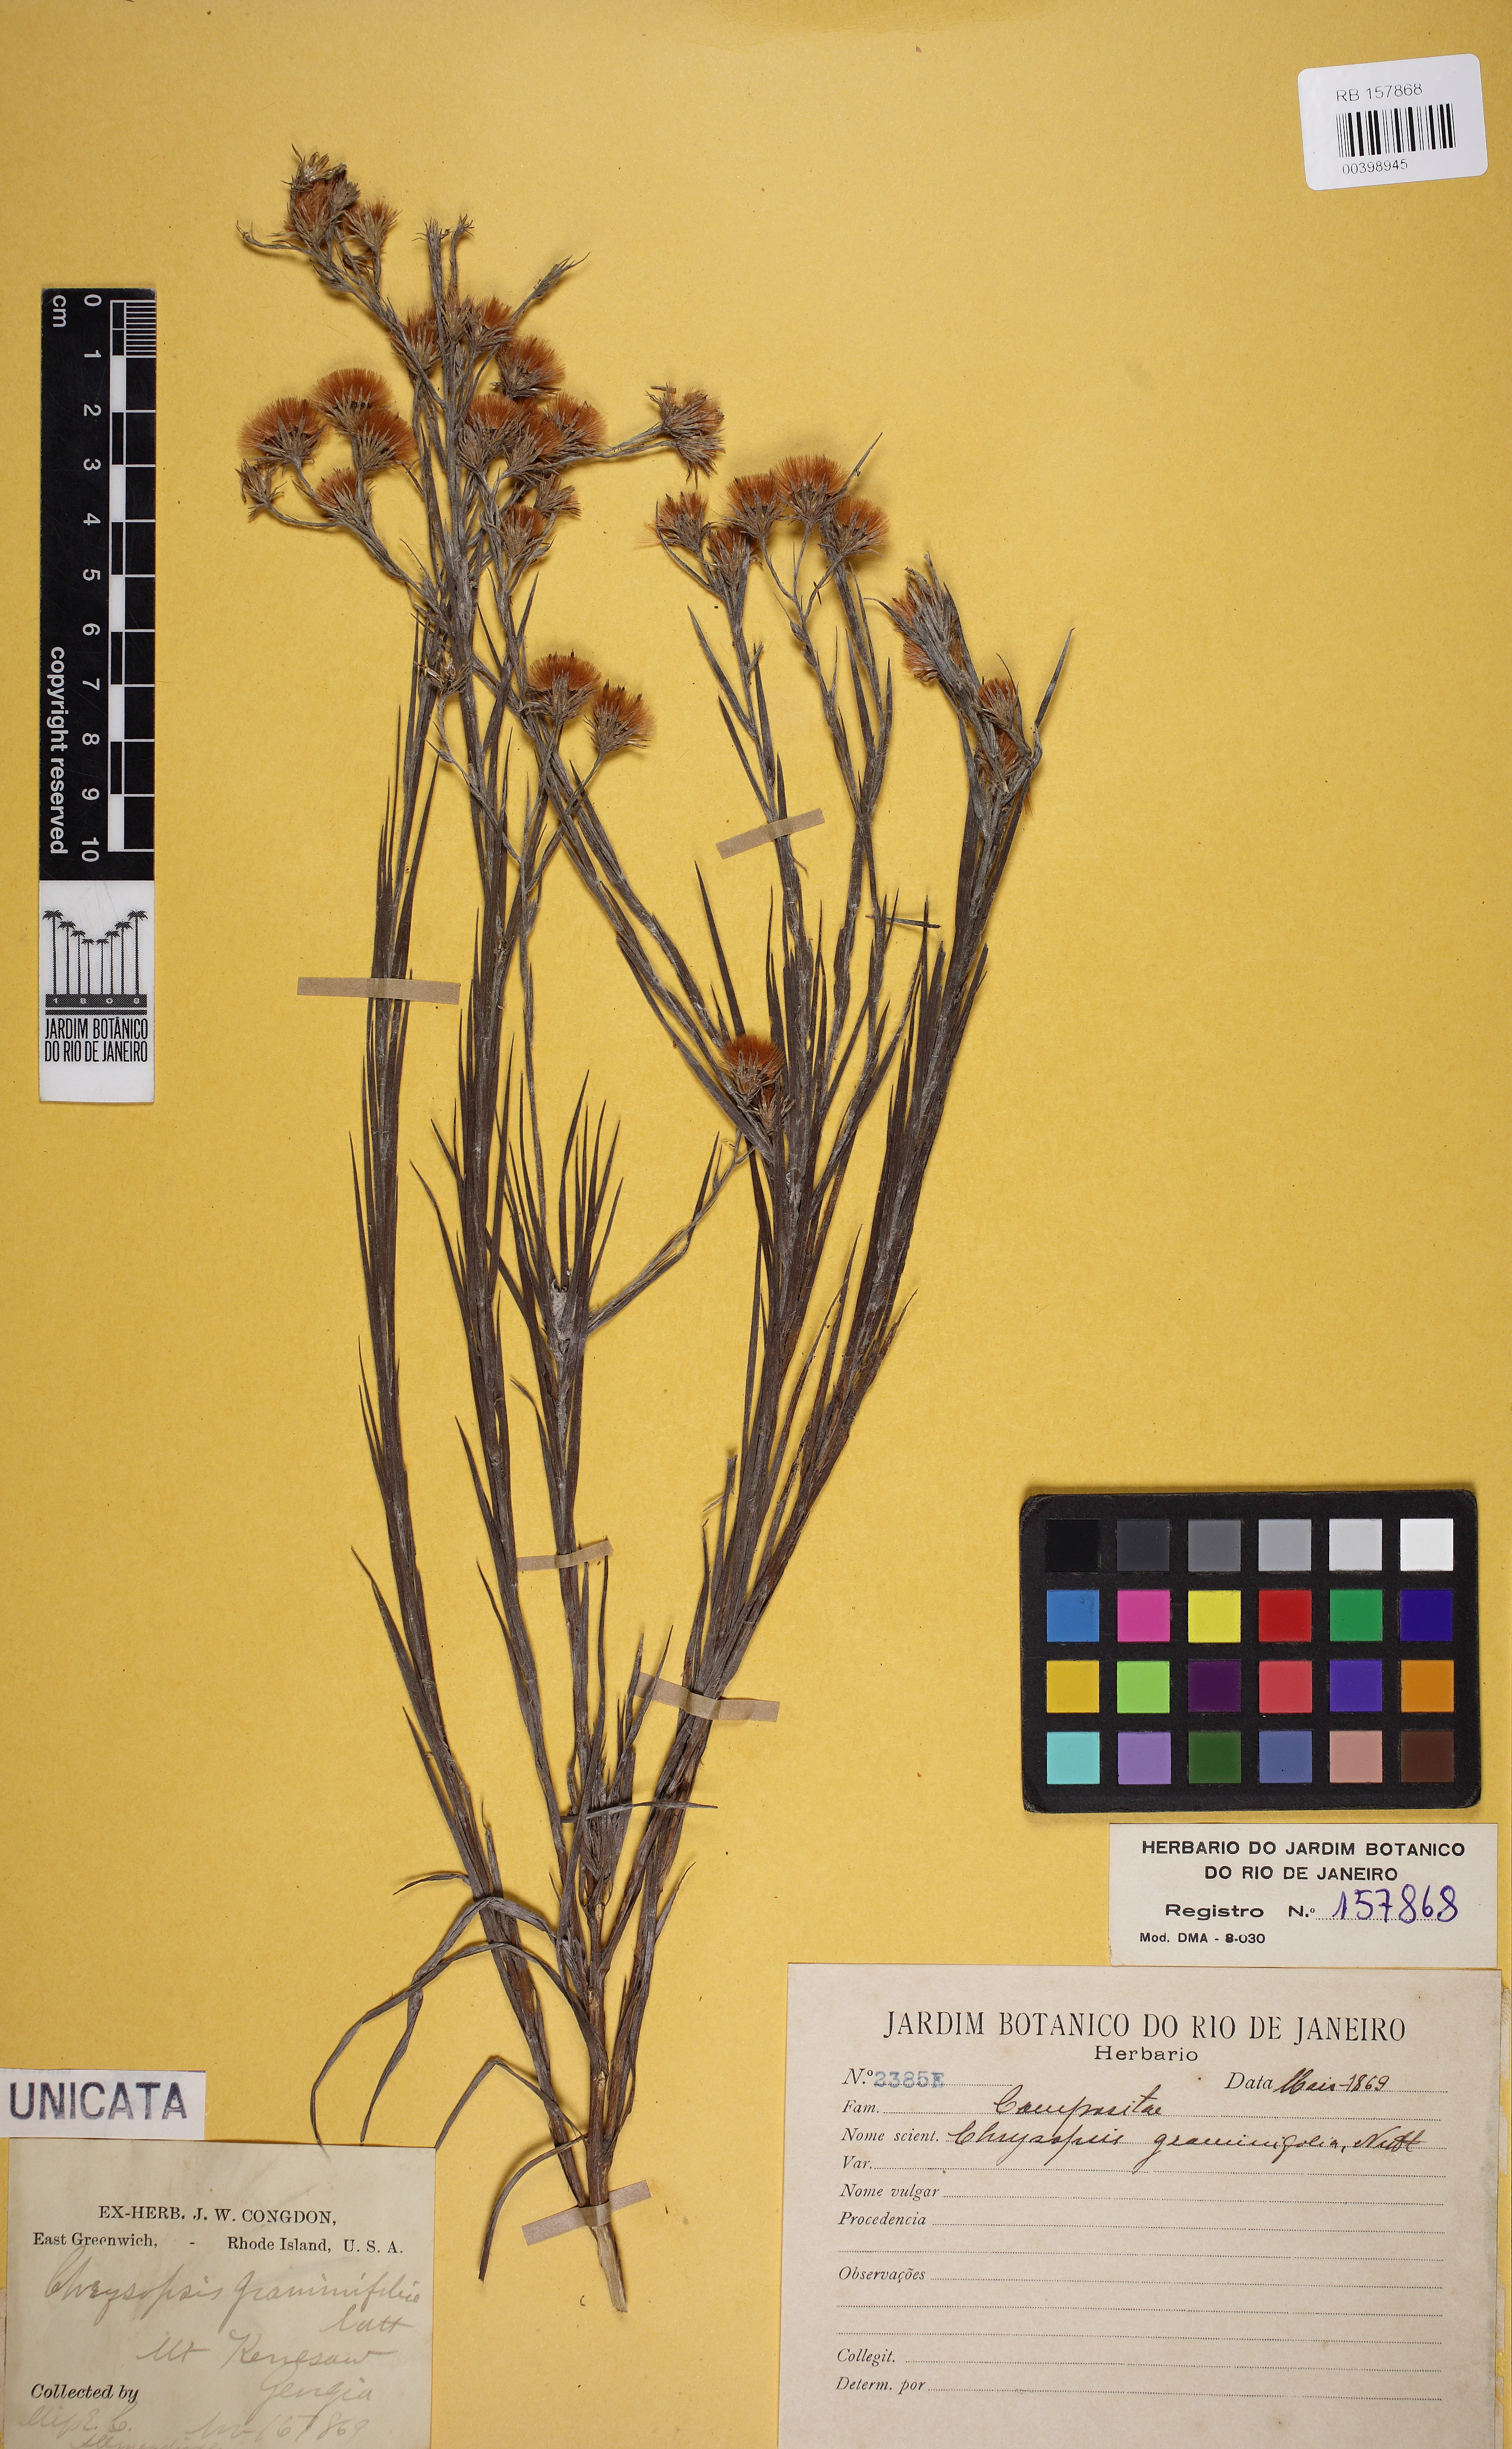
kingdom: Plantae
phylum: Tracheophyta
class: Magnoliopsida
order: Asterales
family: Asteraceae
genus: Pityopsis
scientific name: Pityopsis graminifolia
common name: Grass-leaf golden-aster
